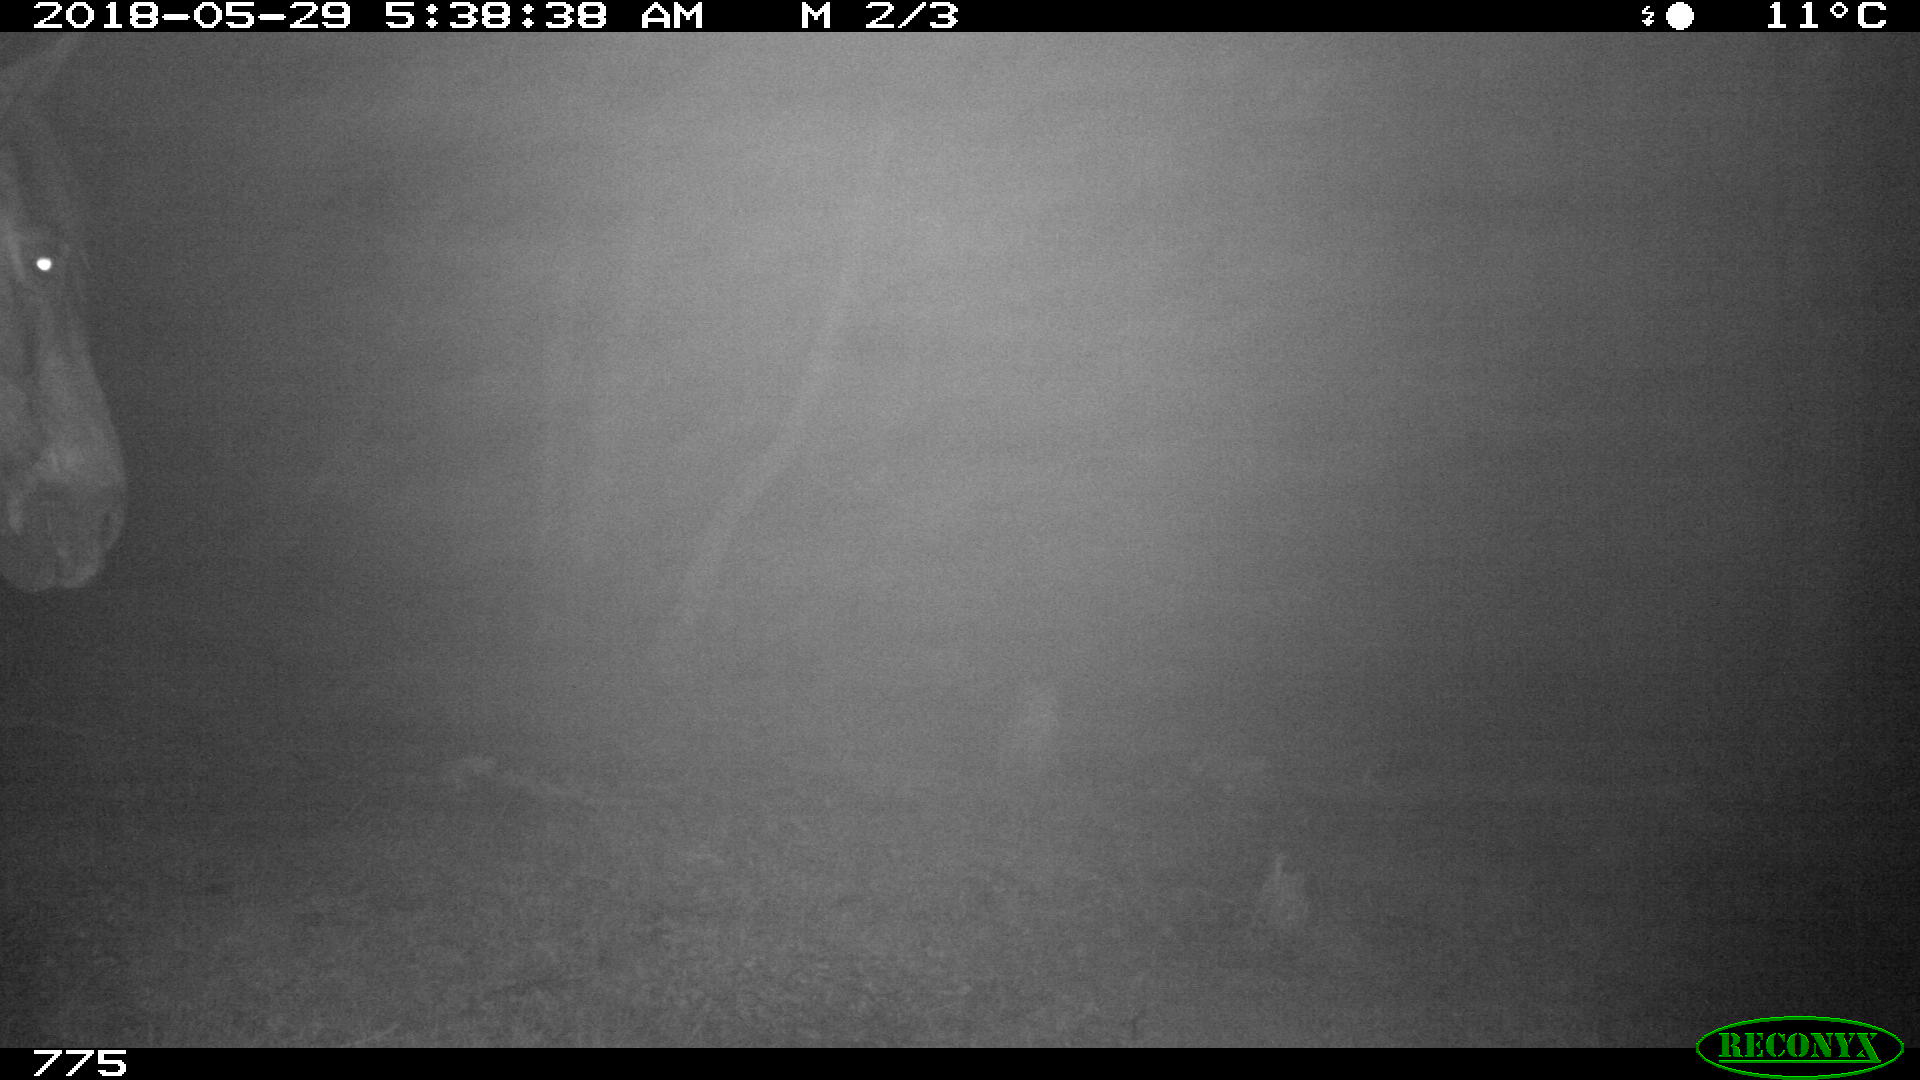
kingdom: Animalia
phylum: Chordata
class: Mammalia
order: Perissodactyla
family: Equidae
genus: Equus
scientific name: Equus caballus
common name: Horse
